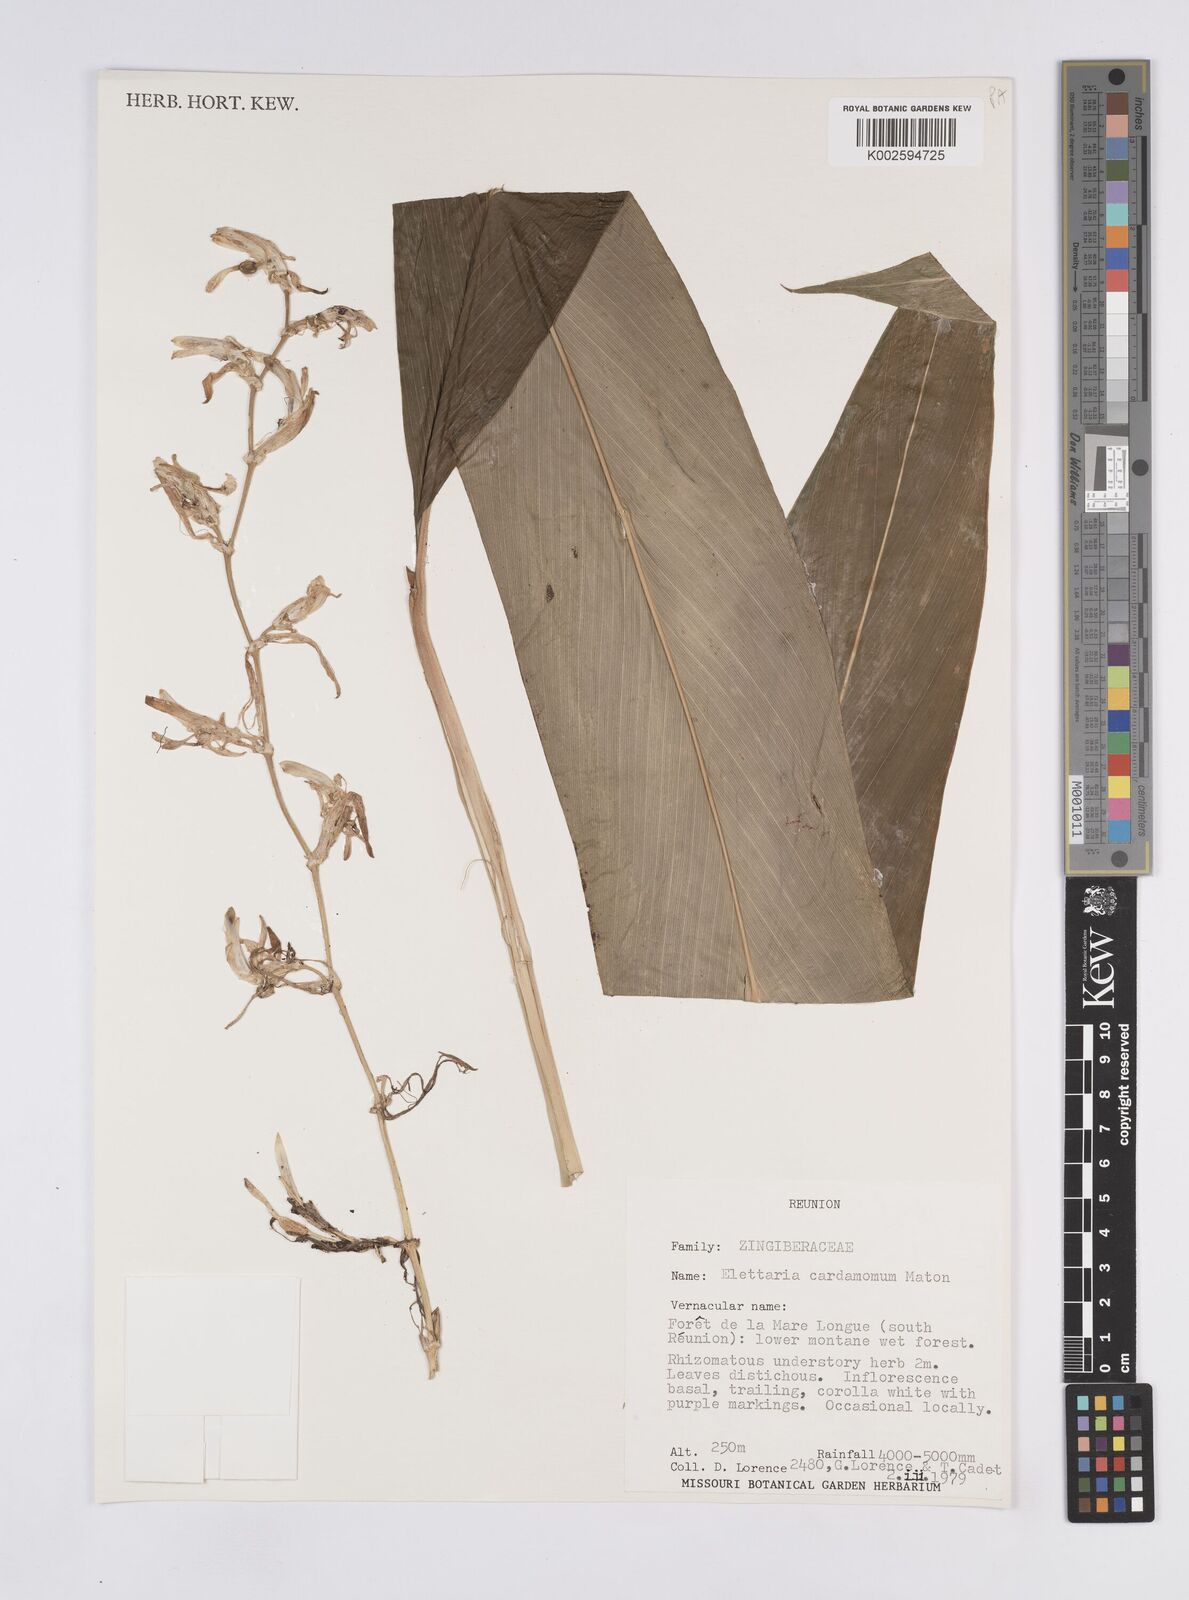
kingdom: Plantae
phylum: Tracheophyta
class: Liliopsida
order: Zingiberales
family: Zingiberaceae
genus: Elettaria
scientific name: Elettaria cardamomum
